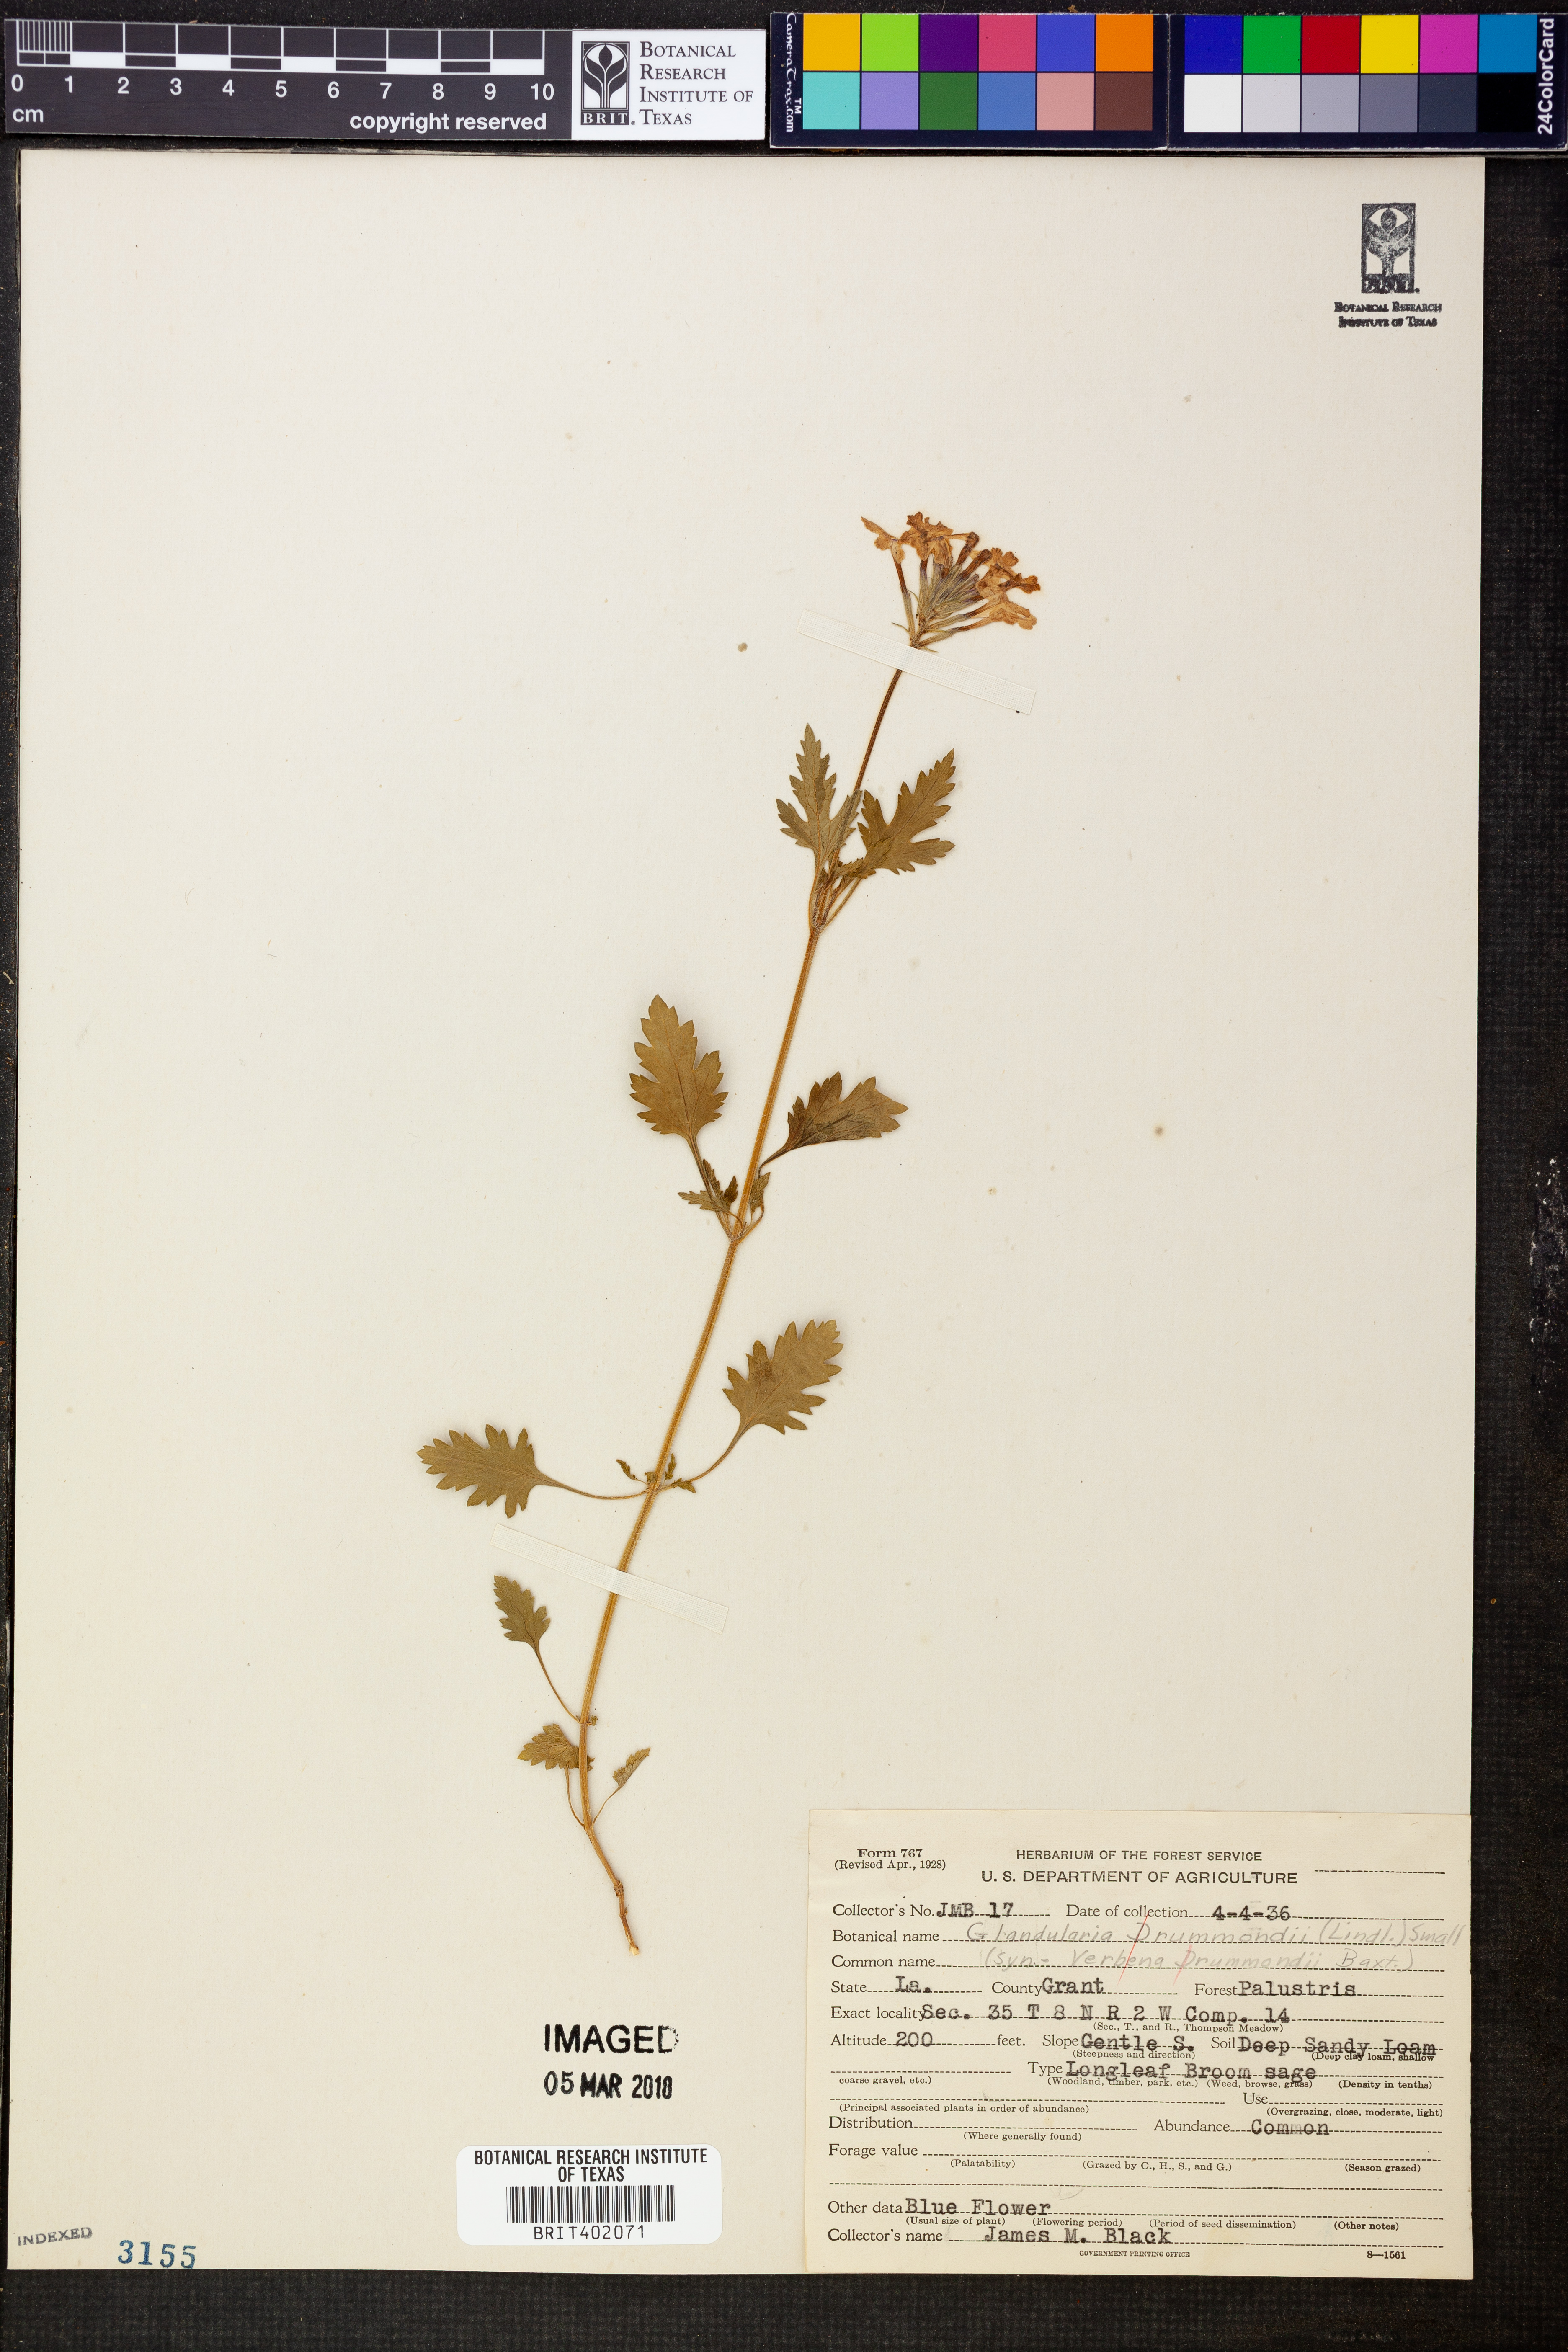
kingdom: Plantae
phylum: Tracheophyta
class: Magnoliopsida
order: Lamiales
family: Verbenaceae
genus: Verbena
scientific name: Verbena canadensis
